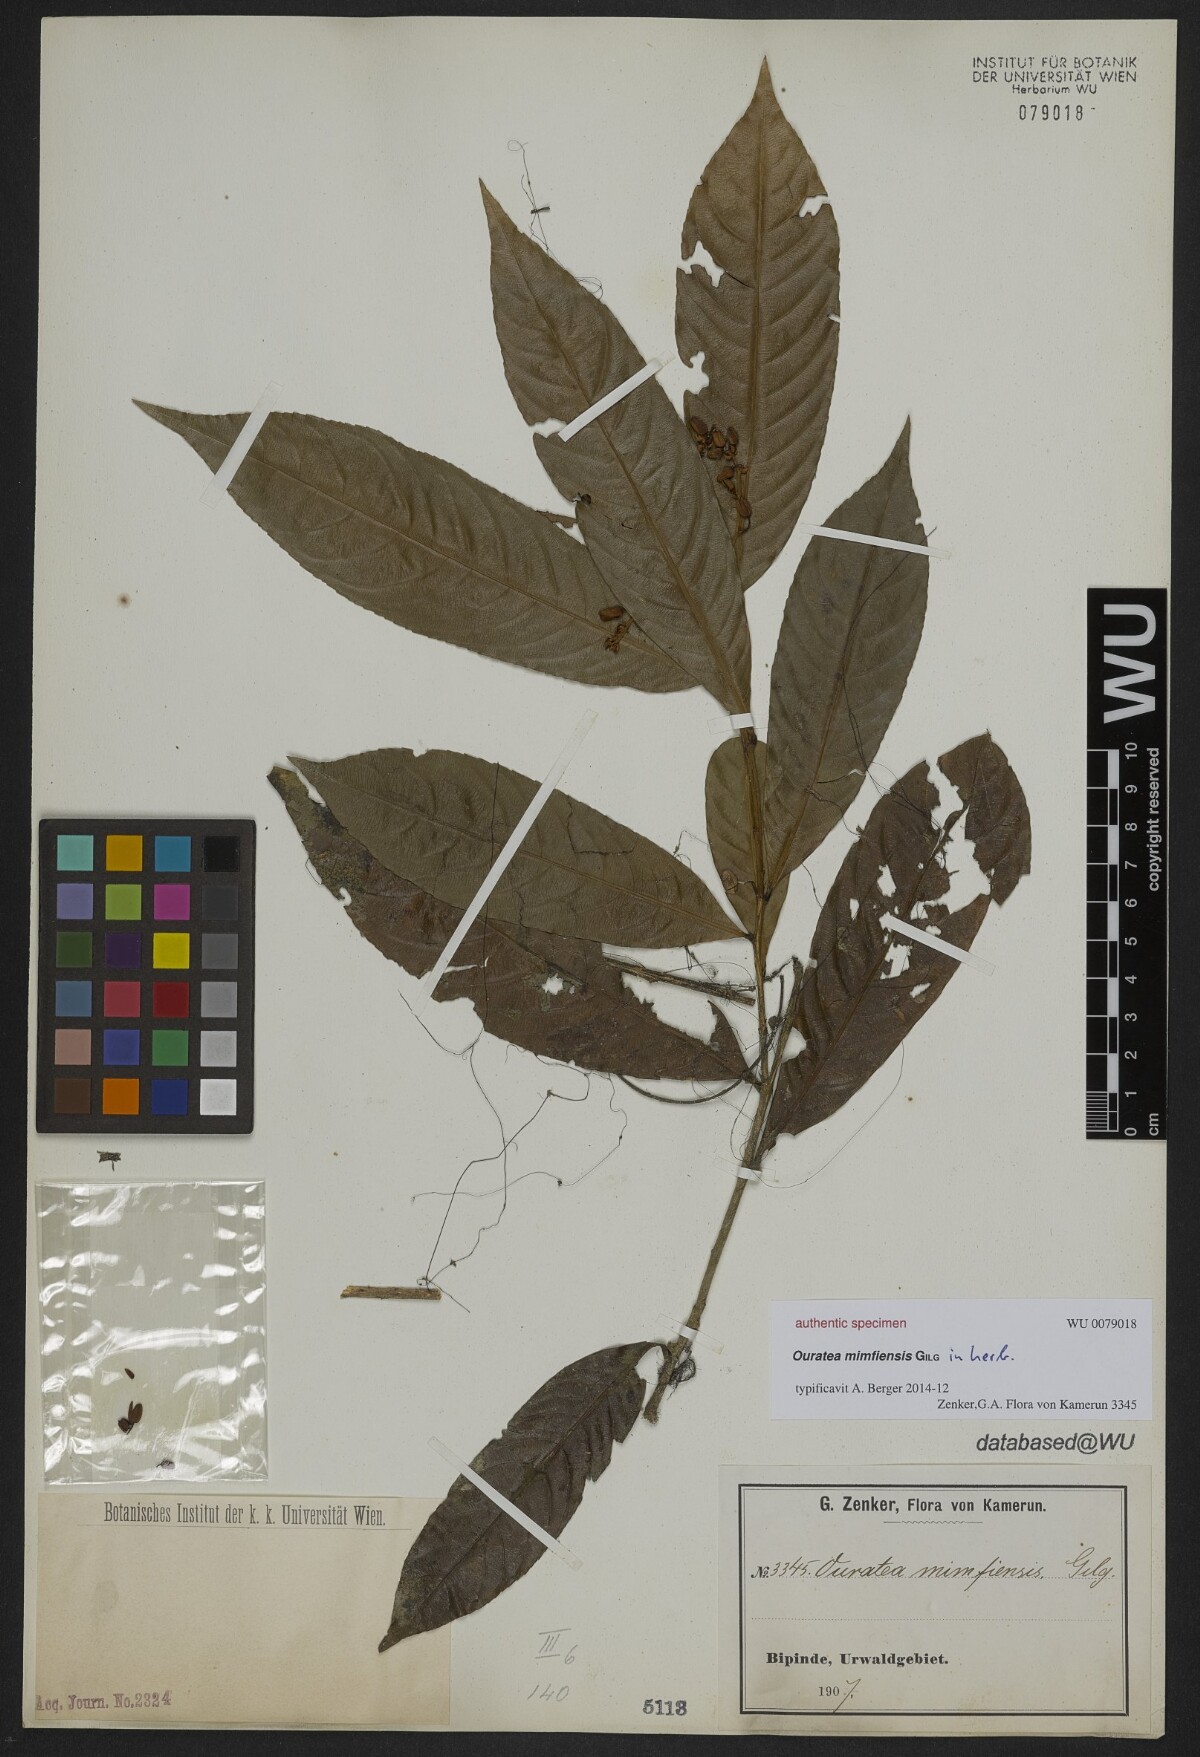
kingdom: Plantae
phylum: Tracheophyta
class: Magnoliopsida
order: Malpighiales
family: Ochnaceae
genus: Ouratea
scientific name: Ouratea
